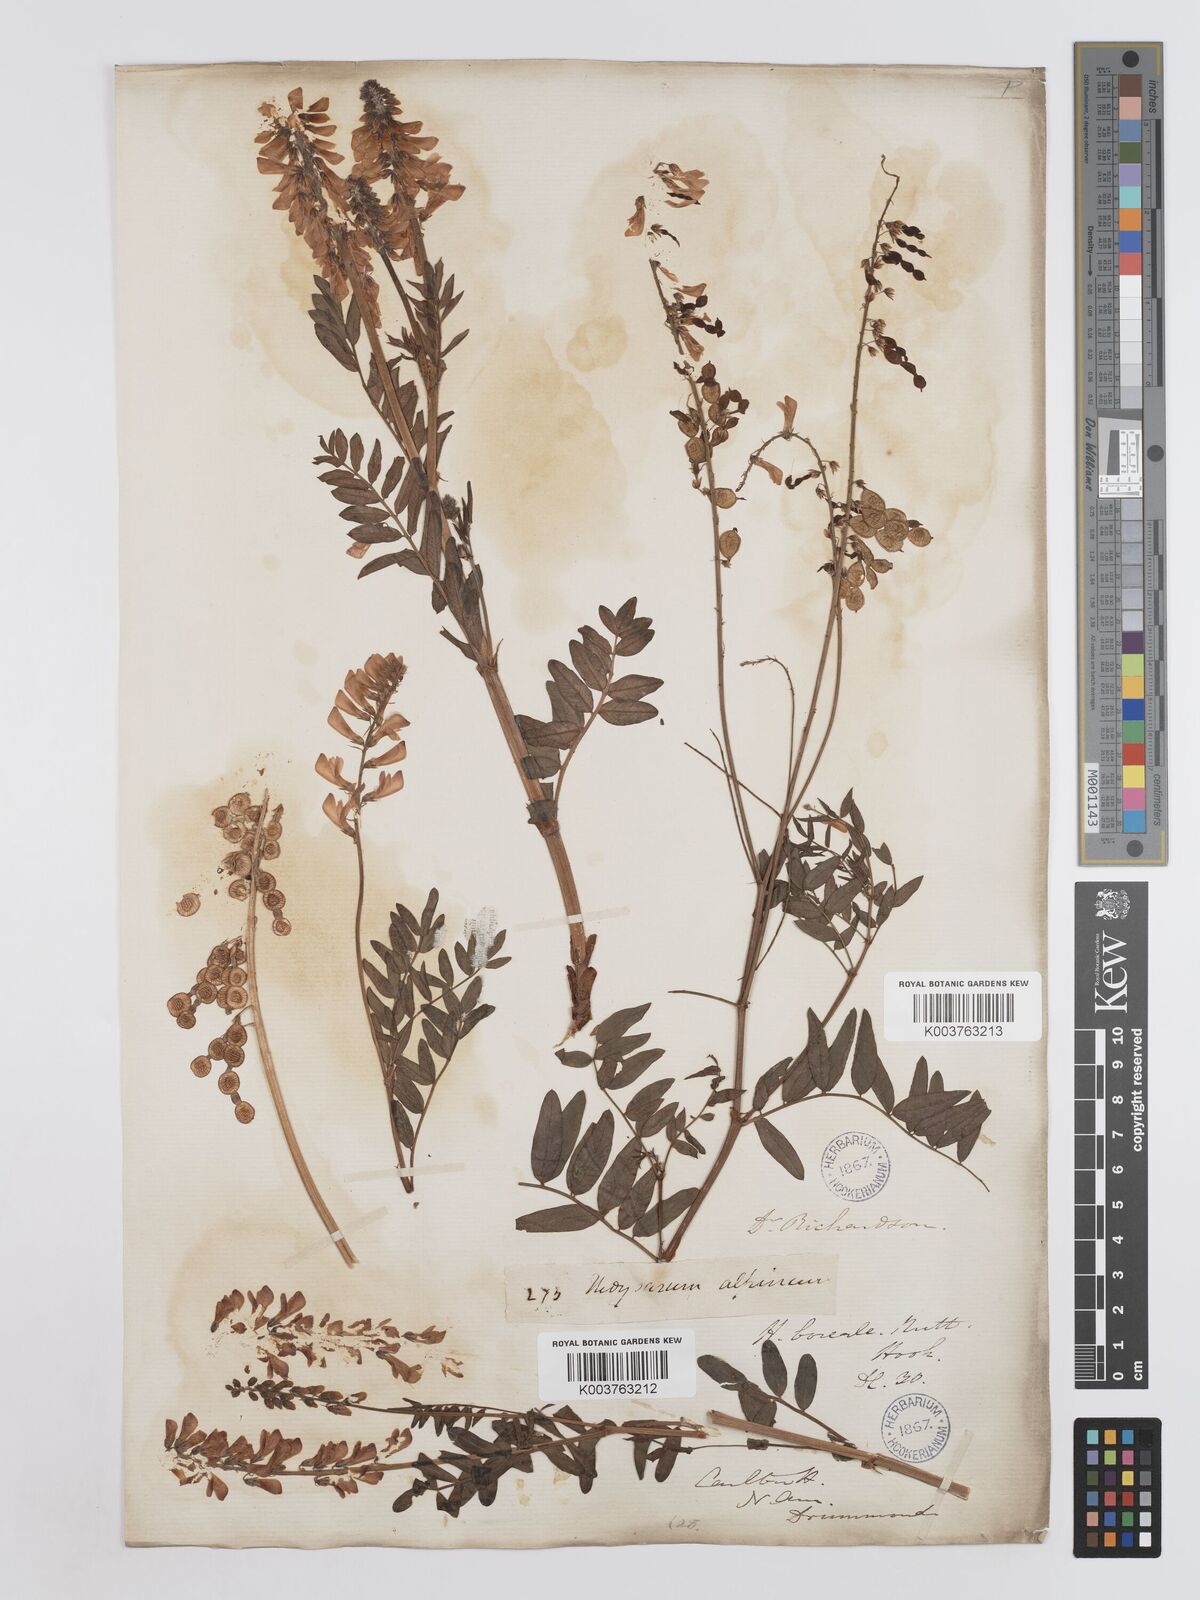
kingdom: Plantae
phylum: Tracheophyta
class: Magnoliopsida
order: Fabales
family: Fabaceae
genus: Hedysarum
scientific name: Hedysarum boreale
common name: Northern sweet-vetch
